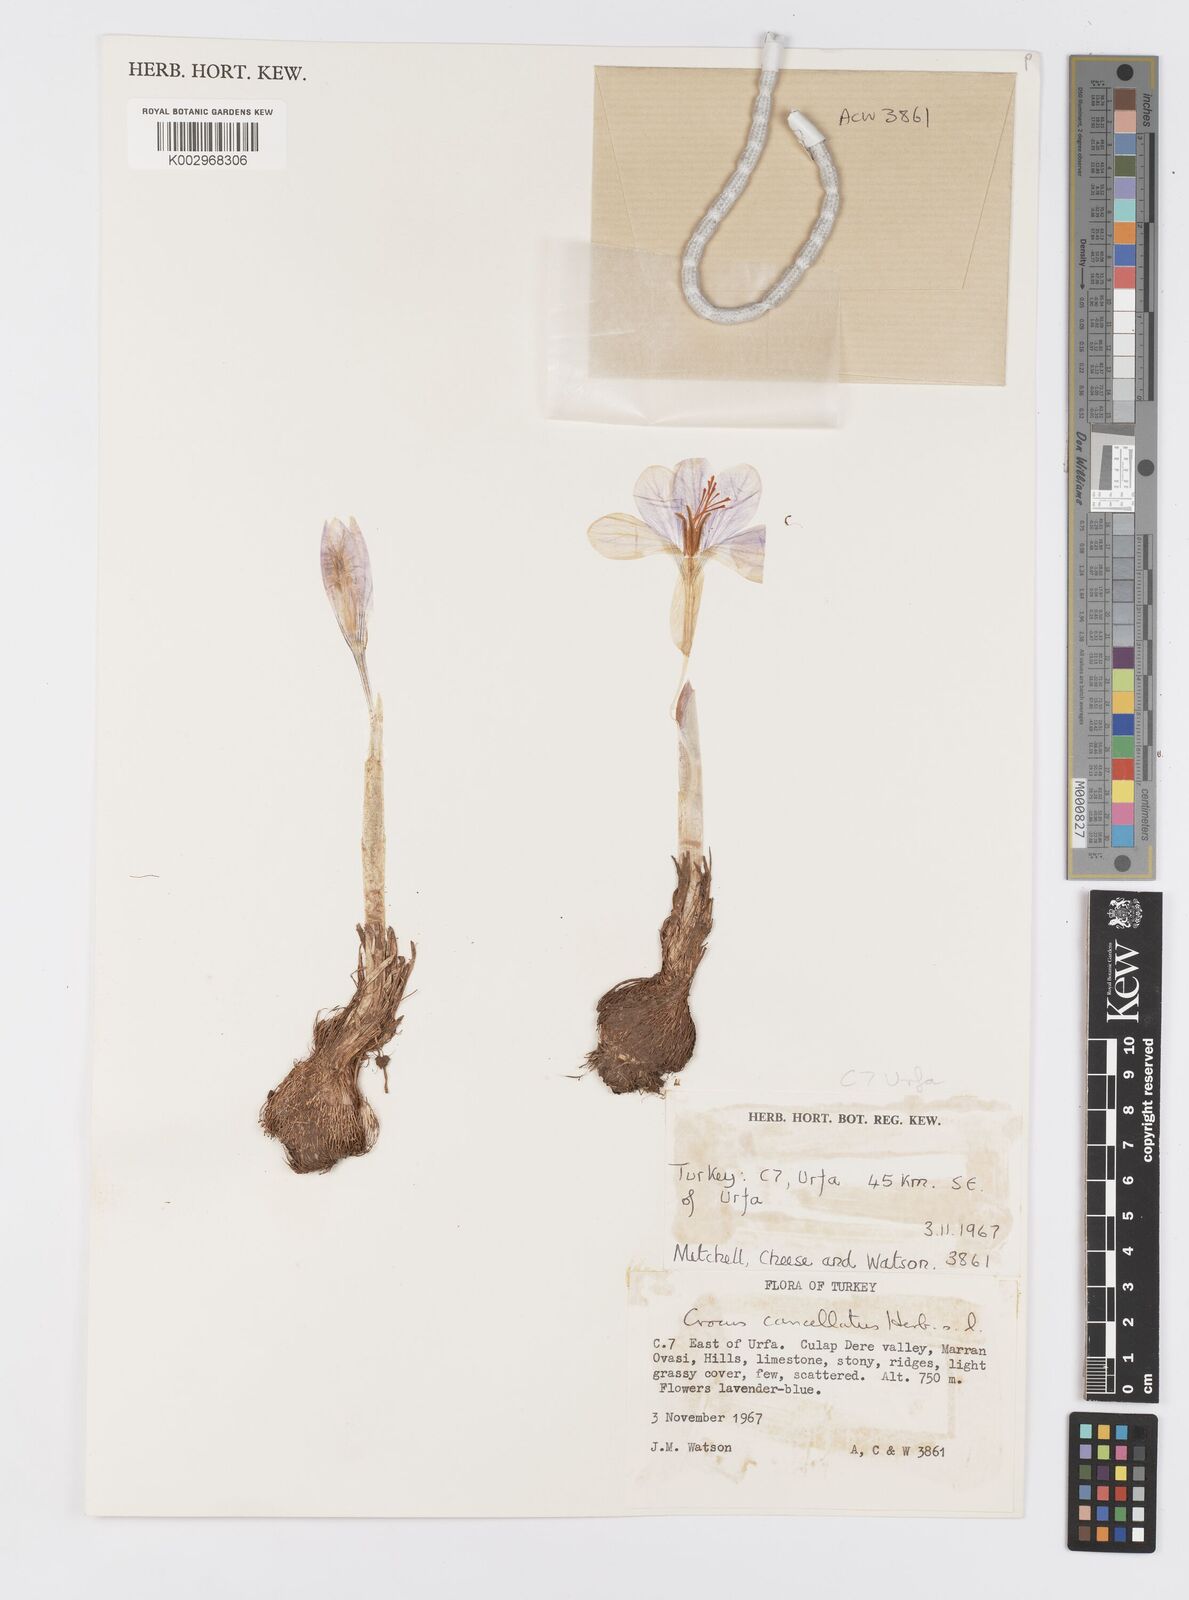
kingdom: Plantae
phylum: Tracheophyta
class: Liliopsida
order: Asparagales
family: Iridaceae
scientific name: Iridaceae
